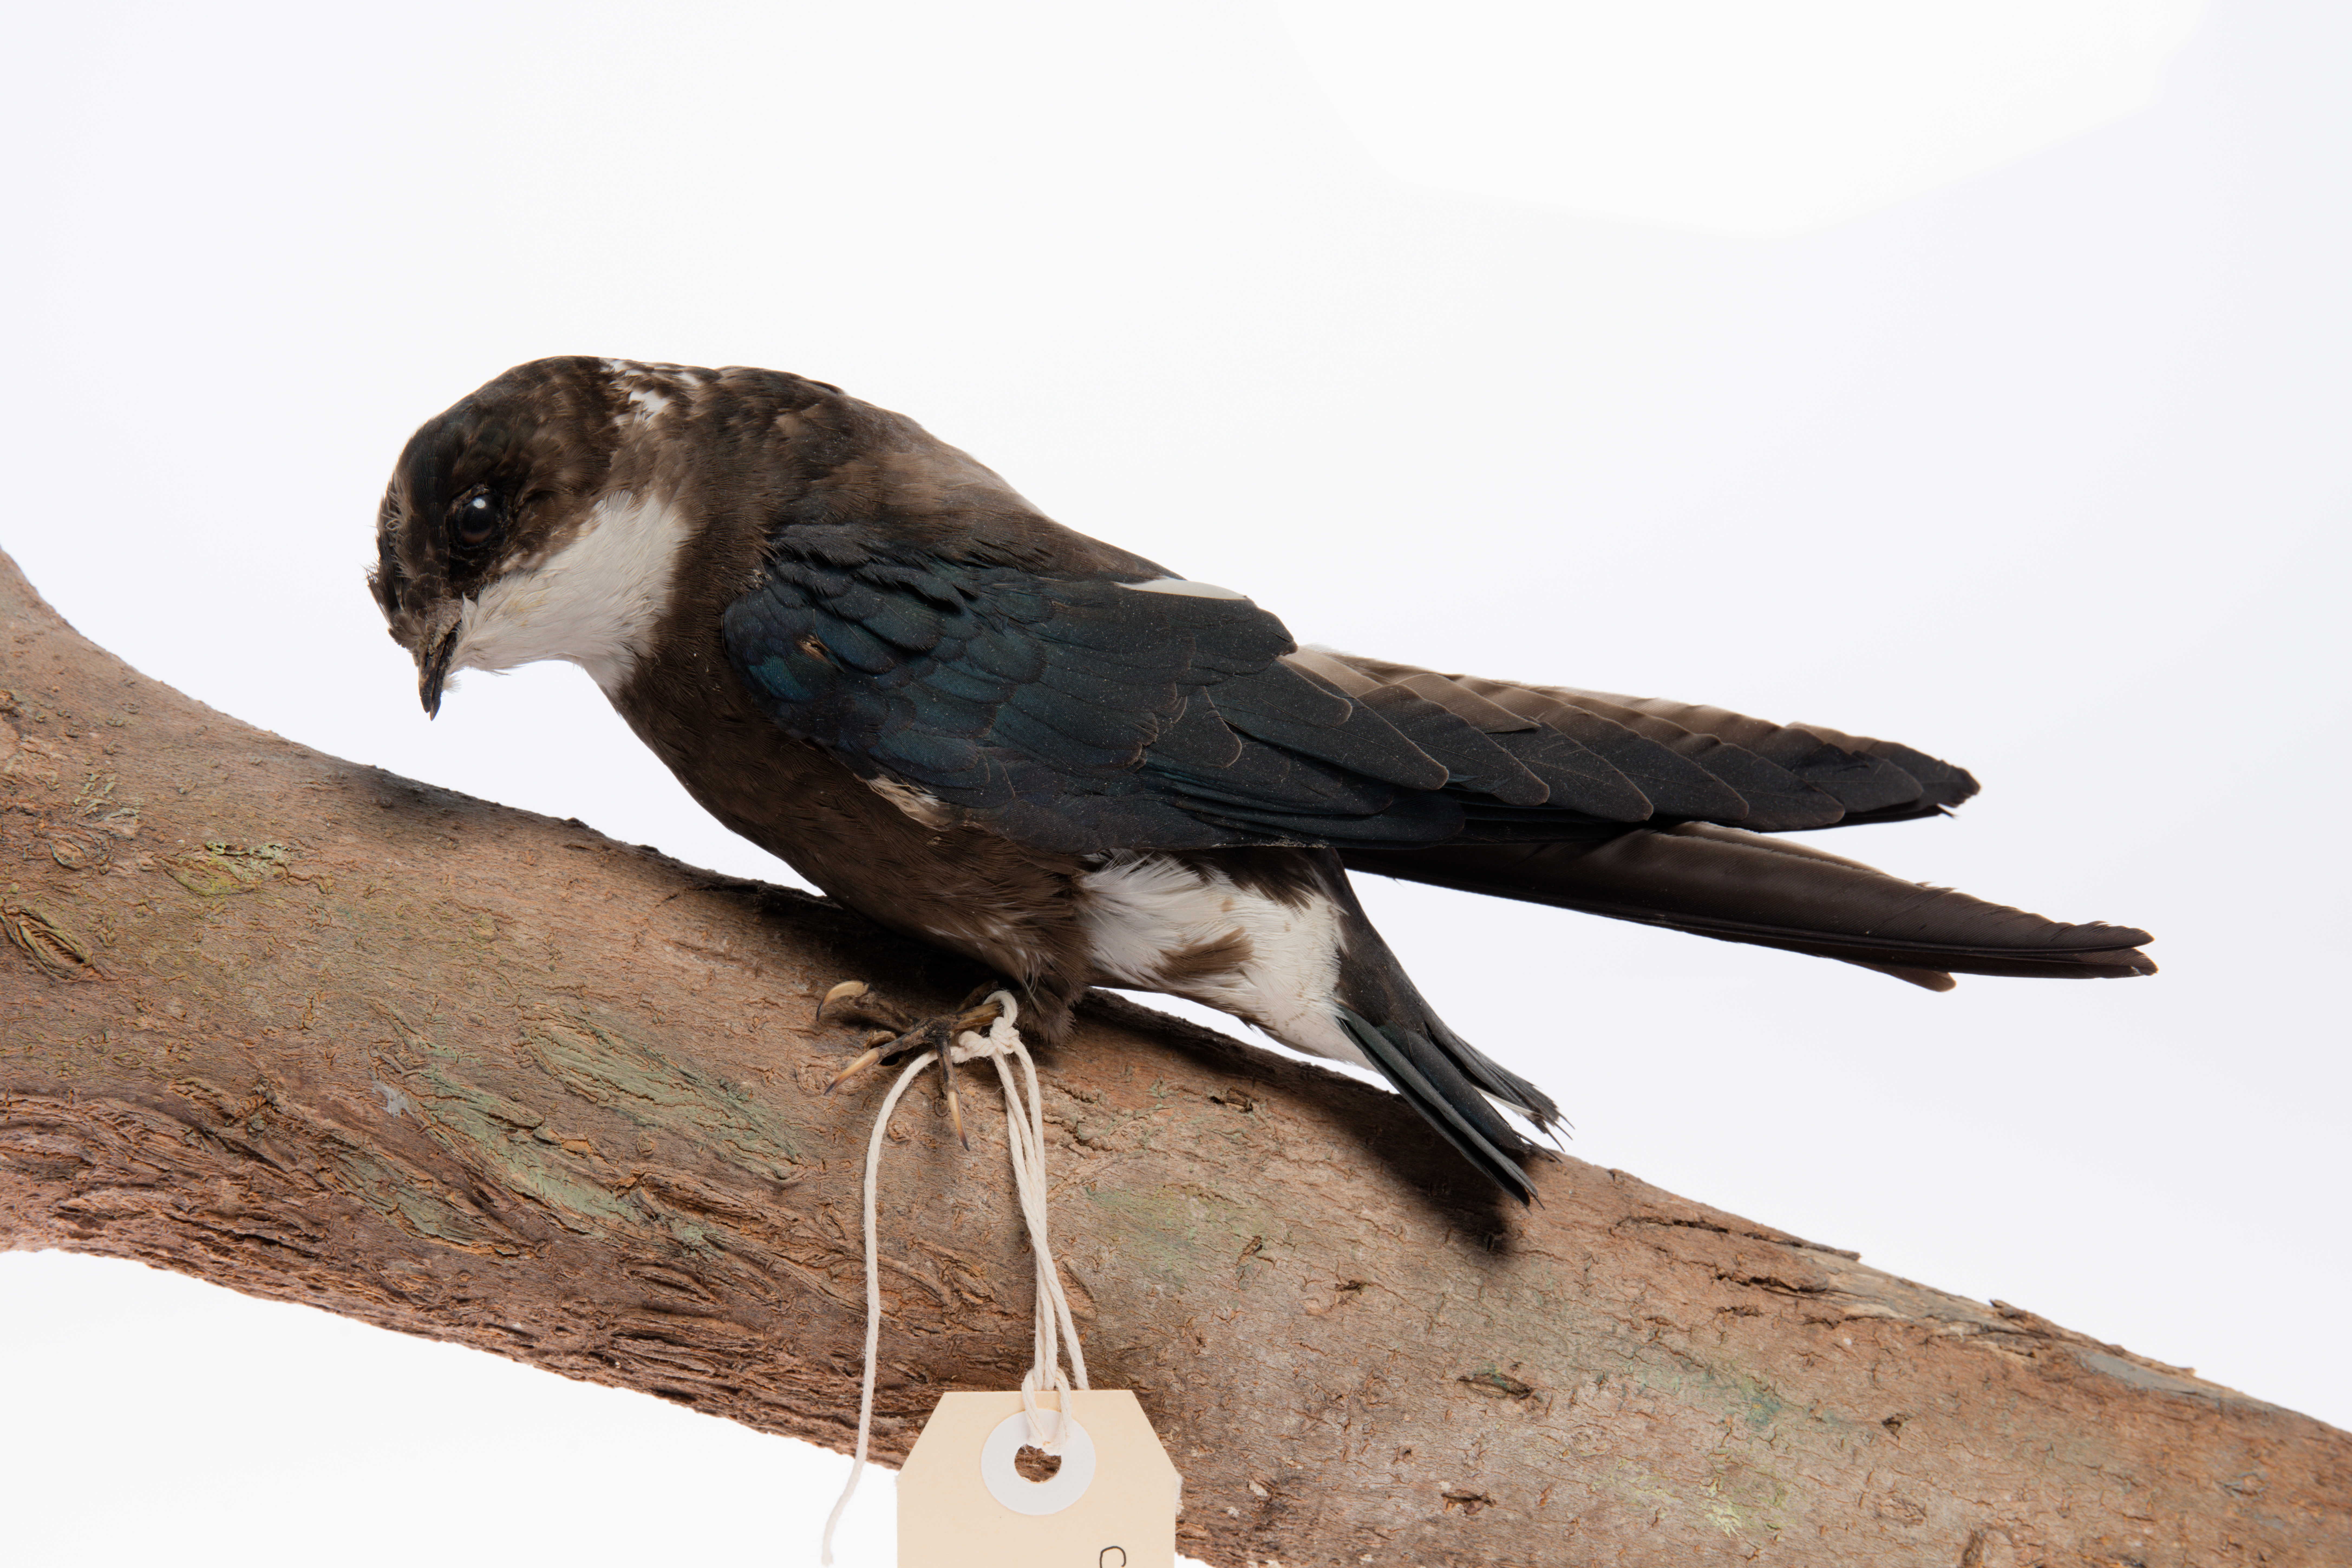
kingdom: Animalia
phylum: Chordata
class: Aves
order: Apodiformes
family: Apodidae
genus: Hirundapus
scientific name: Hirundapus caudacutus
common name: White-throated needletail
